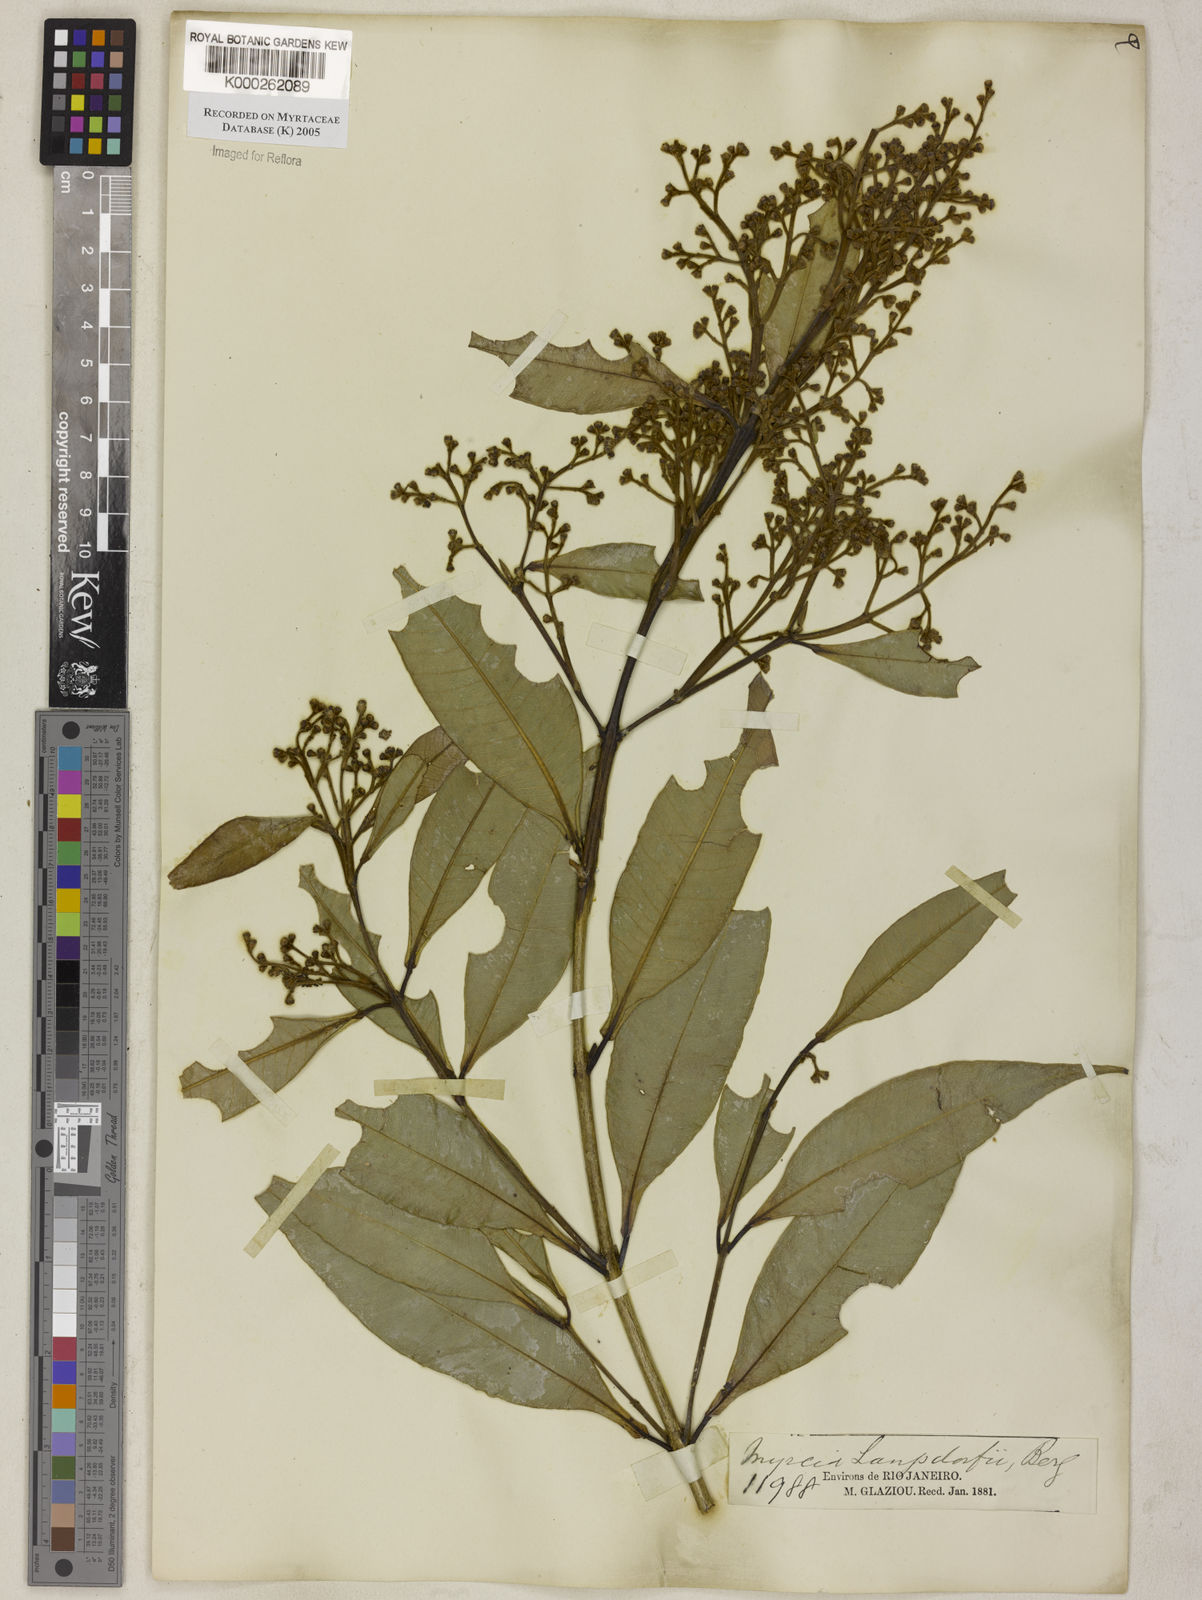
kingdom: Plantae
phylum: Tracheophyta
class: Magnoliopsida
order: Myrtales
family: Myrtaceae
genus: Myrcia
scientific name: Myrcia splendens
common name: Surinam cherry
